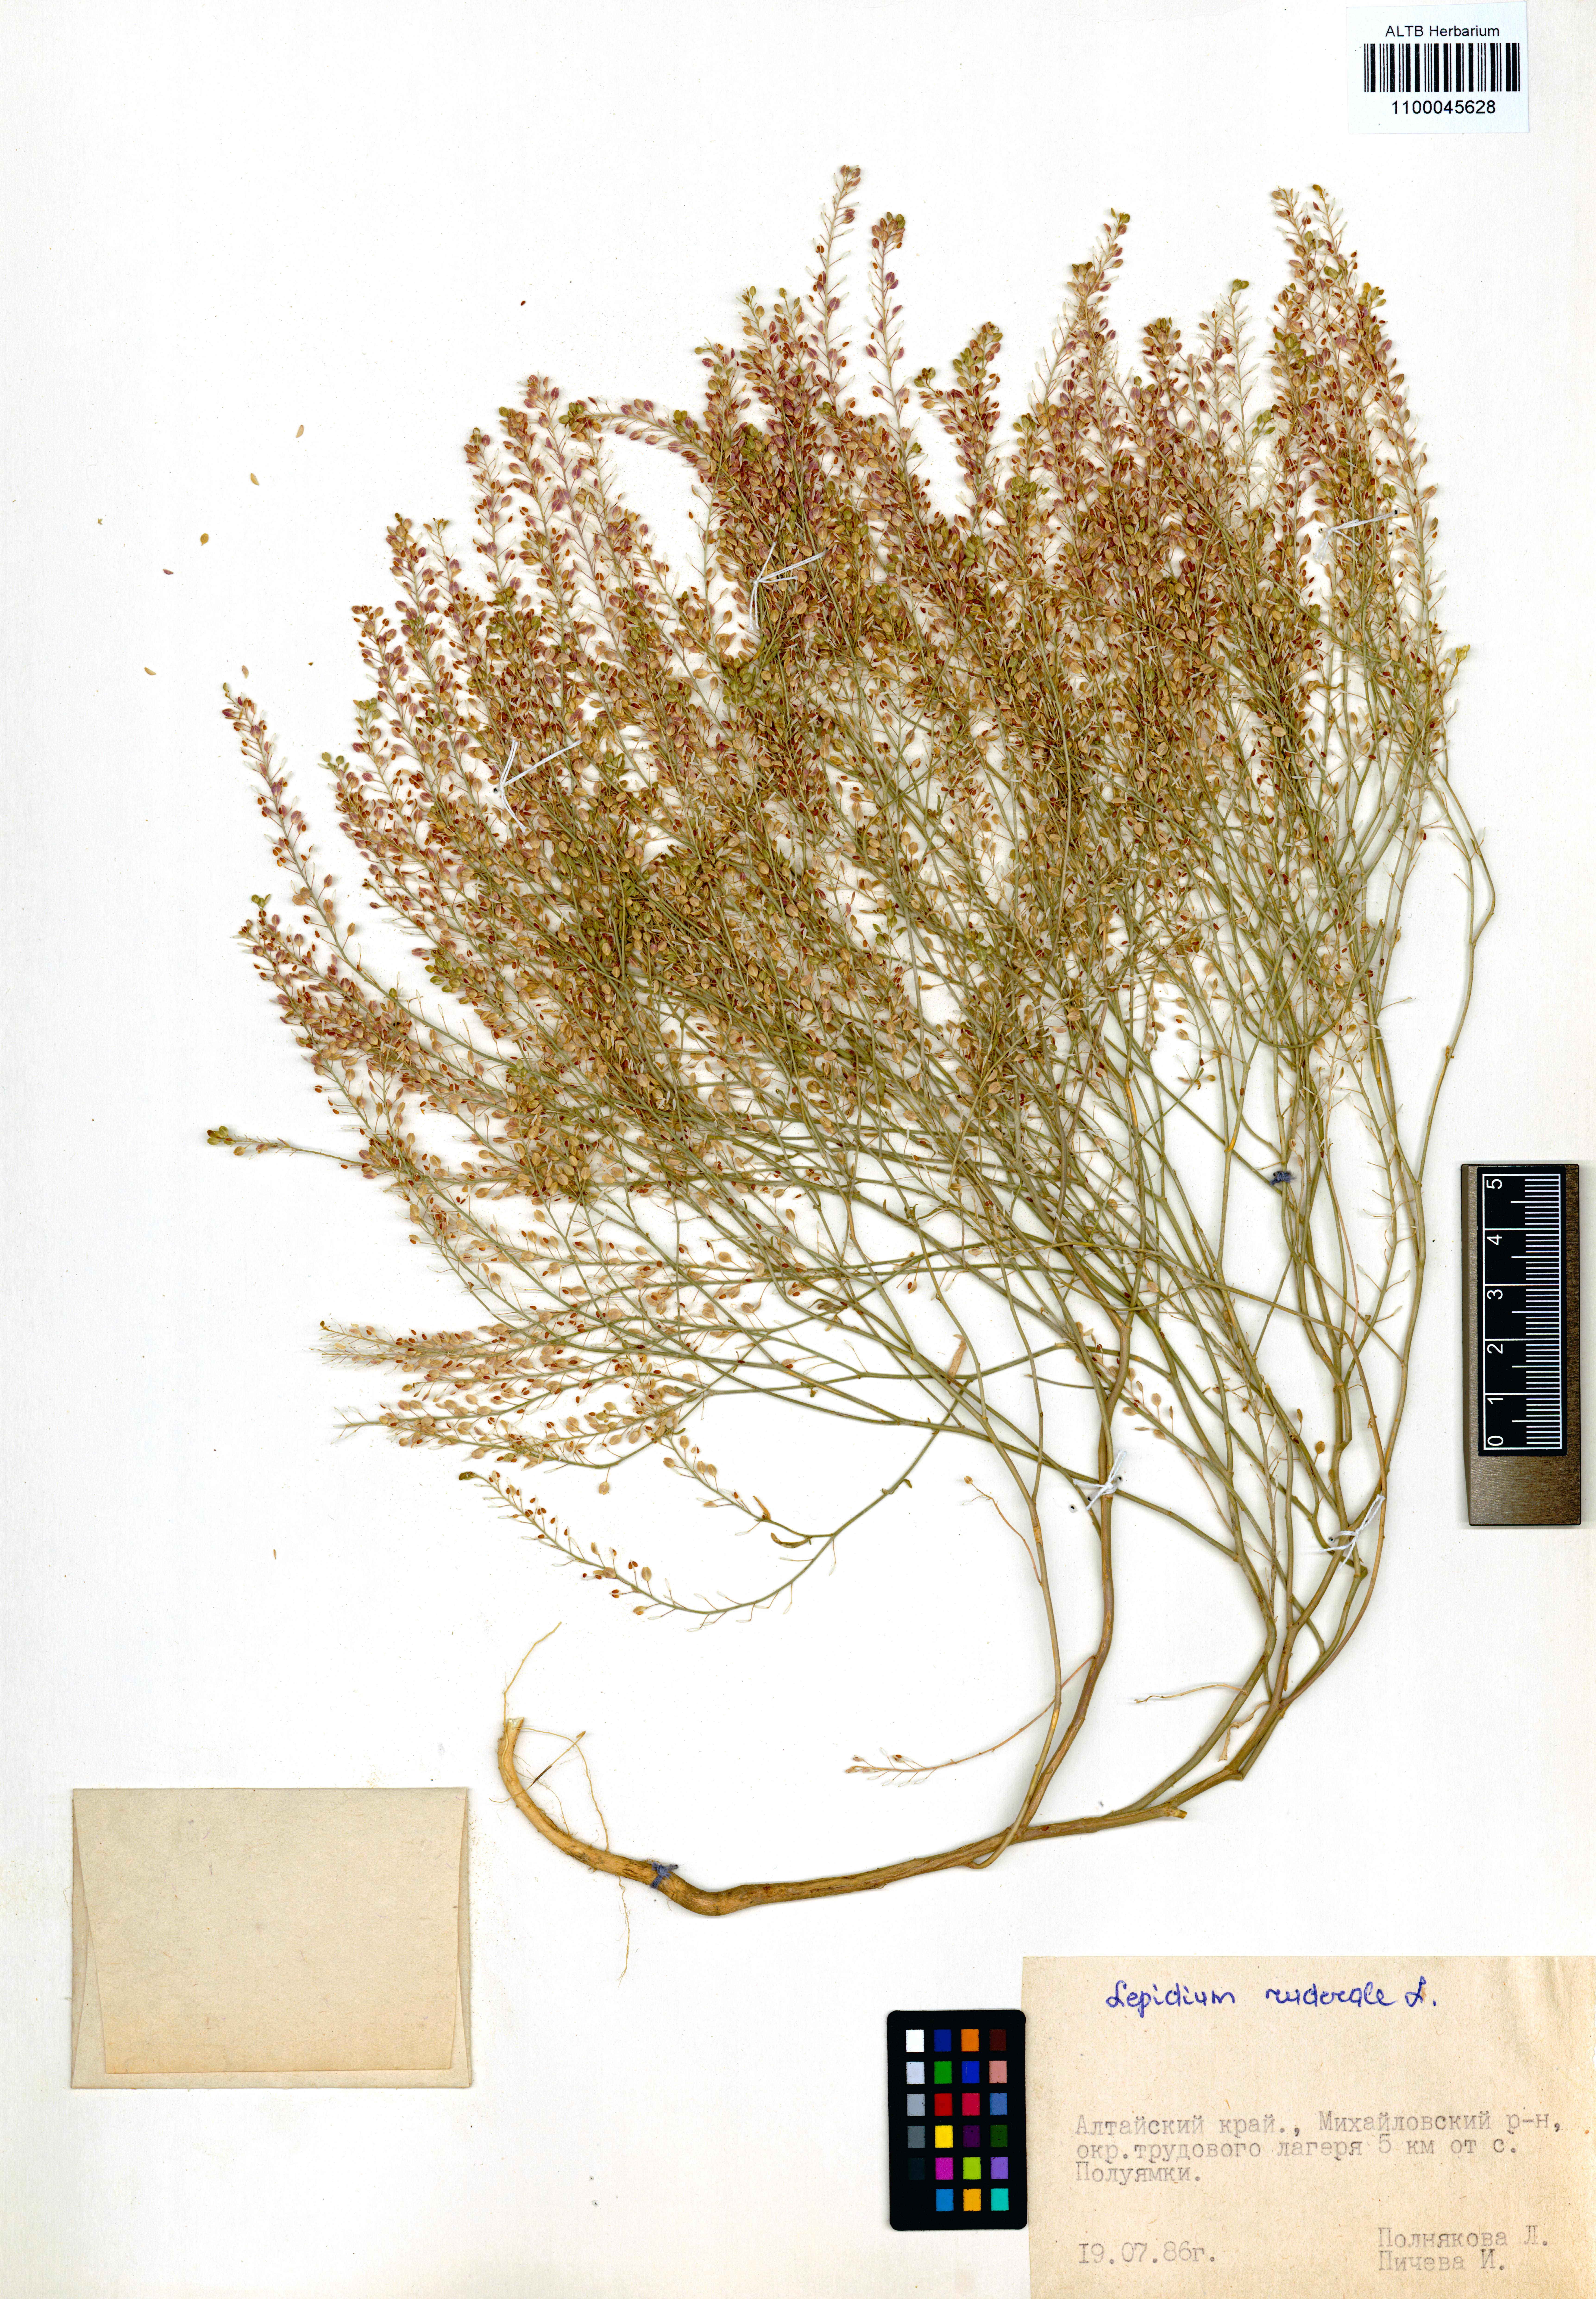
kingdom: Plantae
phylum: Tracheophyta
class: Magnoliopsida
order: Brassicales
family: Brassicaceae
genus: Lepidium
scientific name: Lepidium ruderale
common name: Narrow-leaved pepperwort
